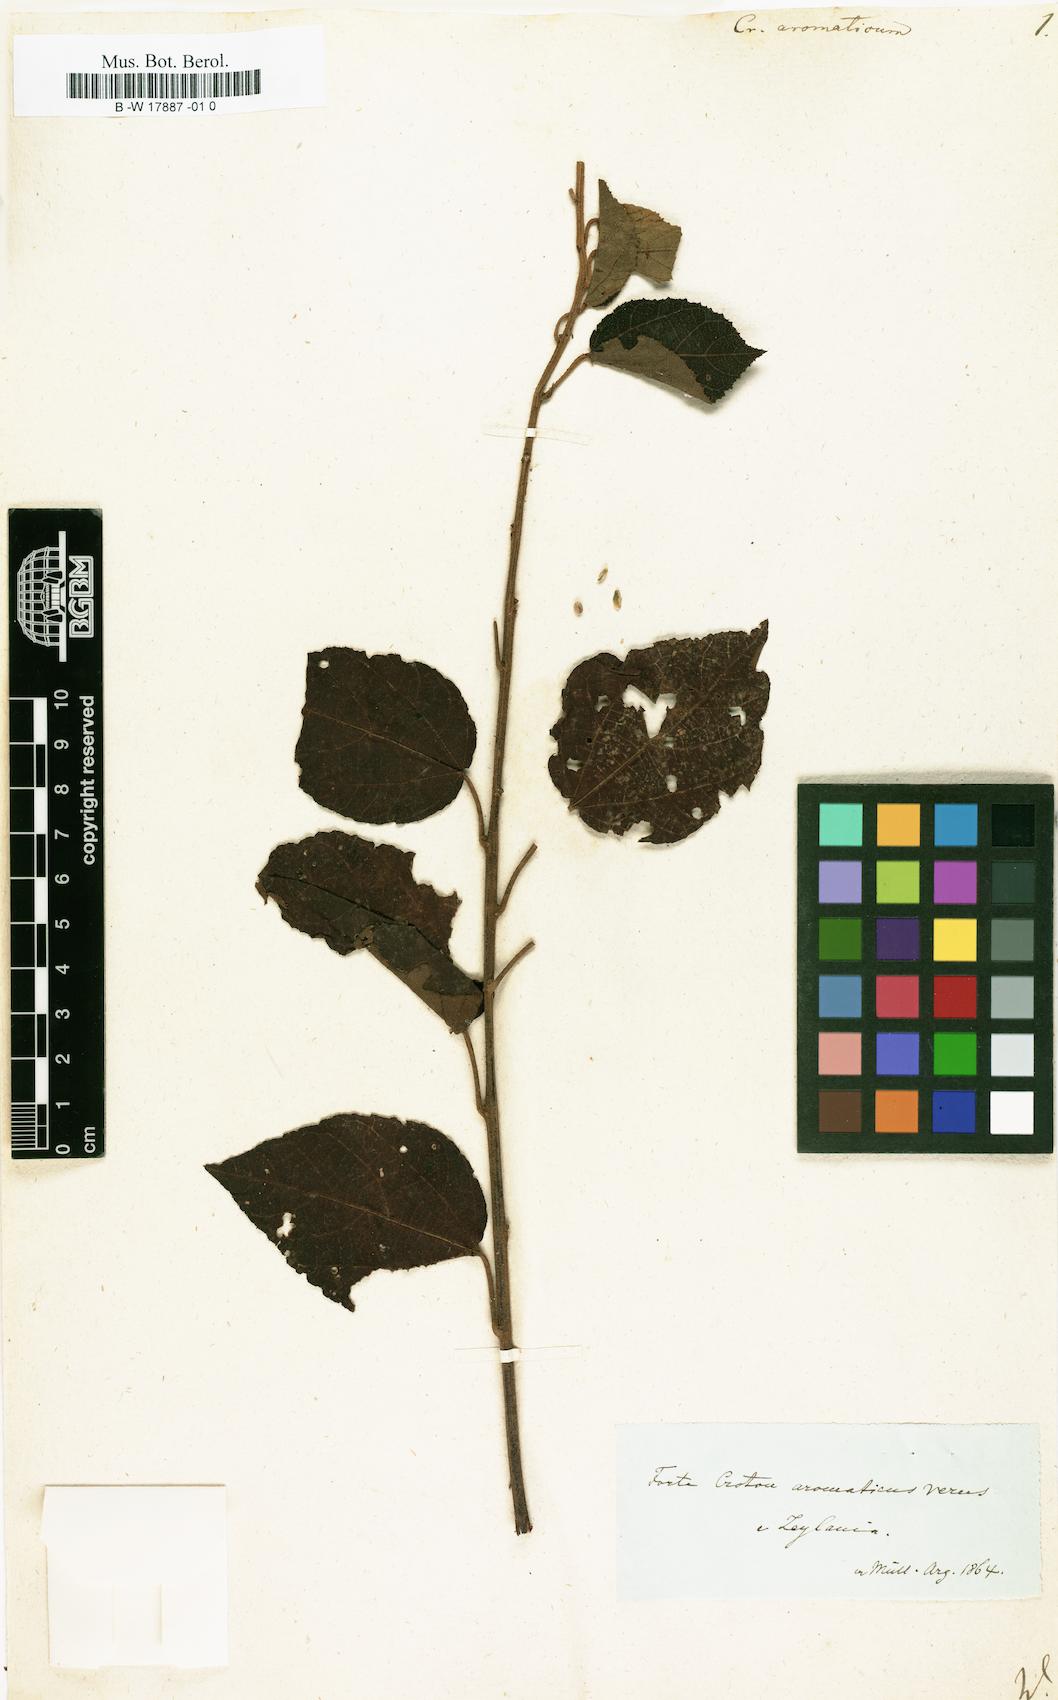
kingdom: Plantae
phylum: Tracheophyta
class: Magnoliopsida
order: Malpighiales
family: Euphorbiaceae
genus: Croton
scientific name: Croton aromaticus
